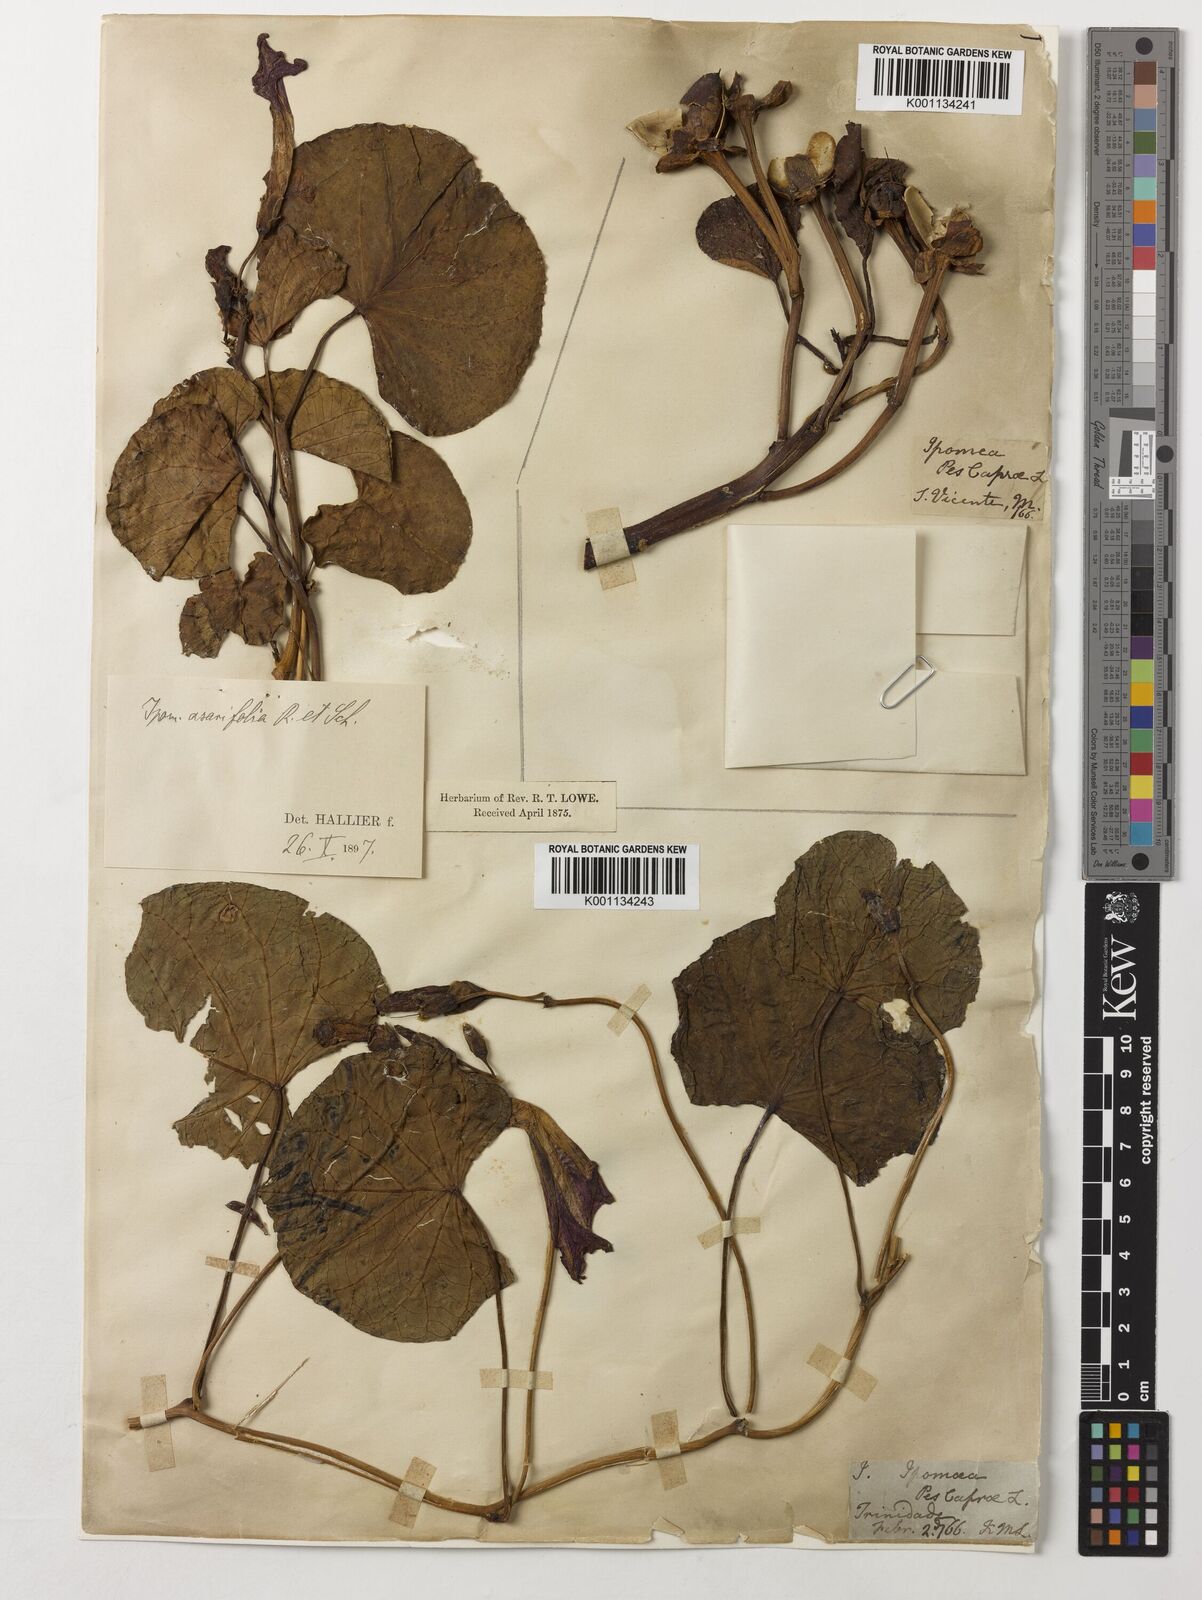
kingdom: Plantae
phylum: Tracheophyta
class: Magnoliopsida
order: Solanales
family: Convolvulaceae
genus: Ipomoea
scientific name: Ipomoea pes-caprae
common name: Beach morning glory
